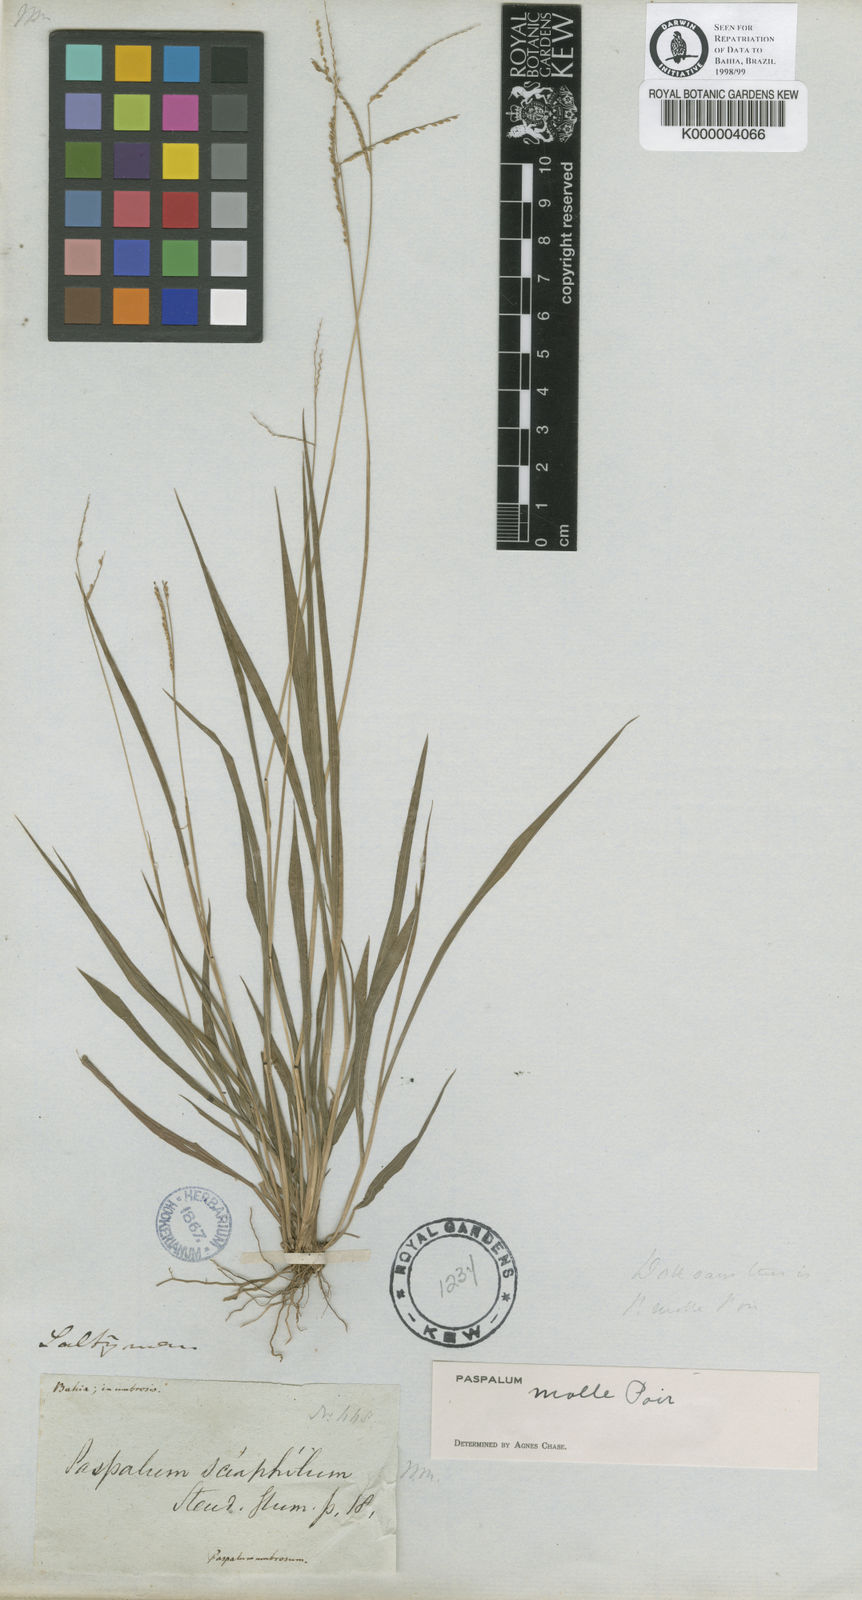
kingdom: Plantae
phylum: Tracheophyta
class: Liliopsida
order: Poales
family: Poaceae
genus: Paspalum
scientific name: Paspalum molle
